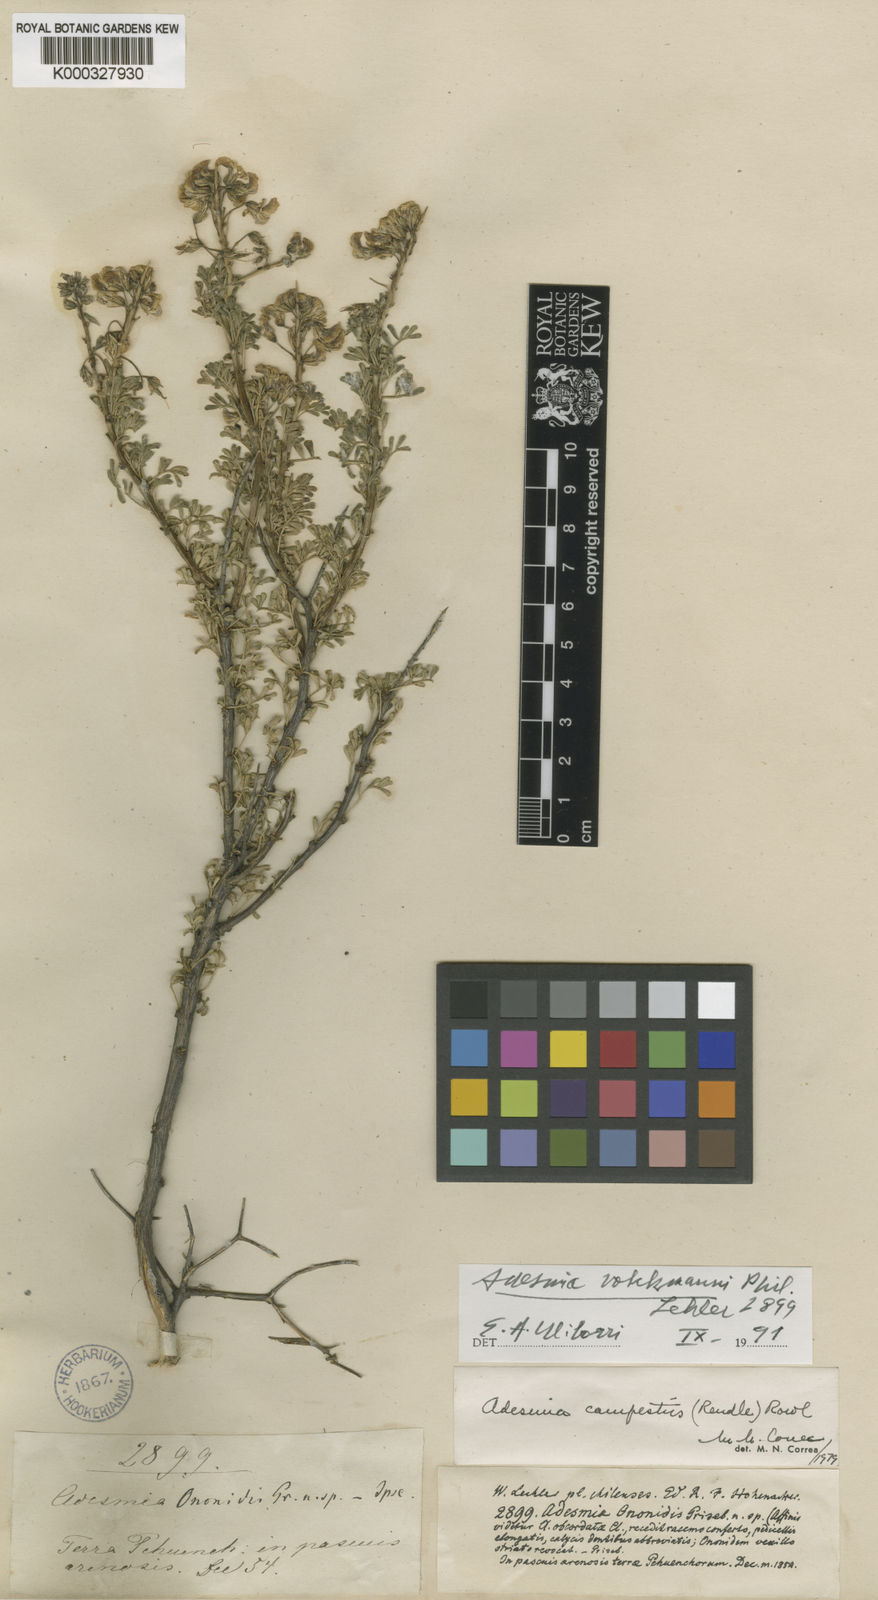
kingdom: Plantae
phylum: Tracheophyta
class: Magnoliopsida
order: Fabales
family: Fabaceae
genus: Adesmia
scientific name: Adesmia volckmannii
